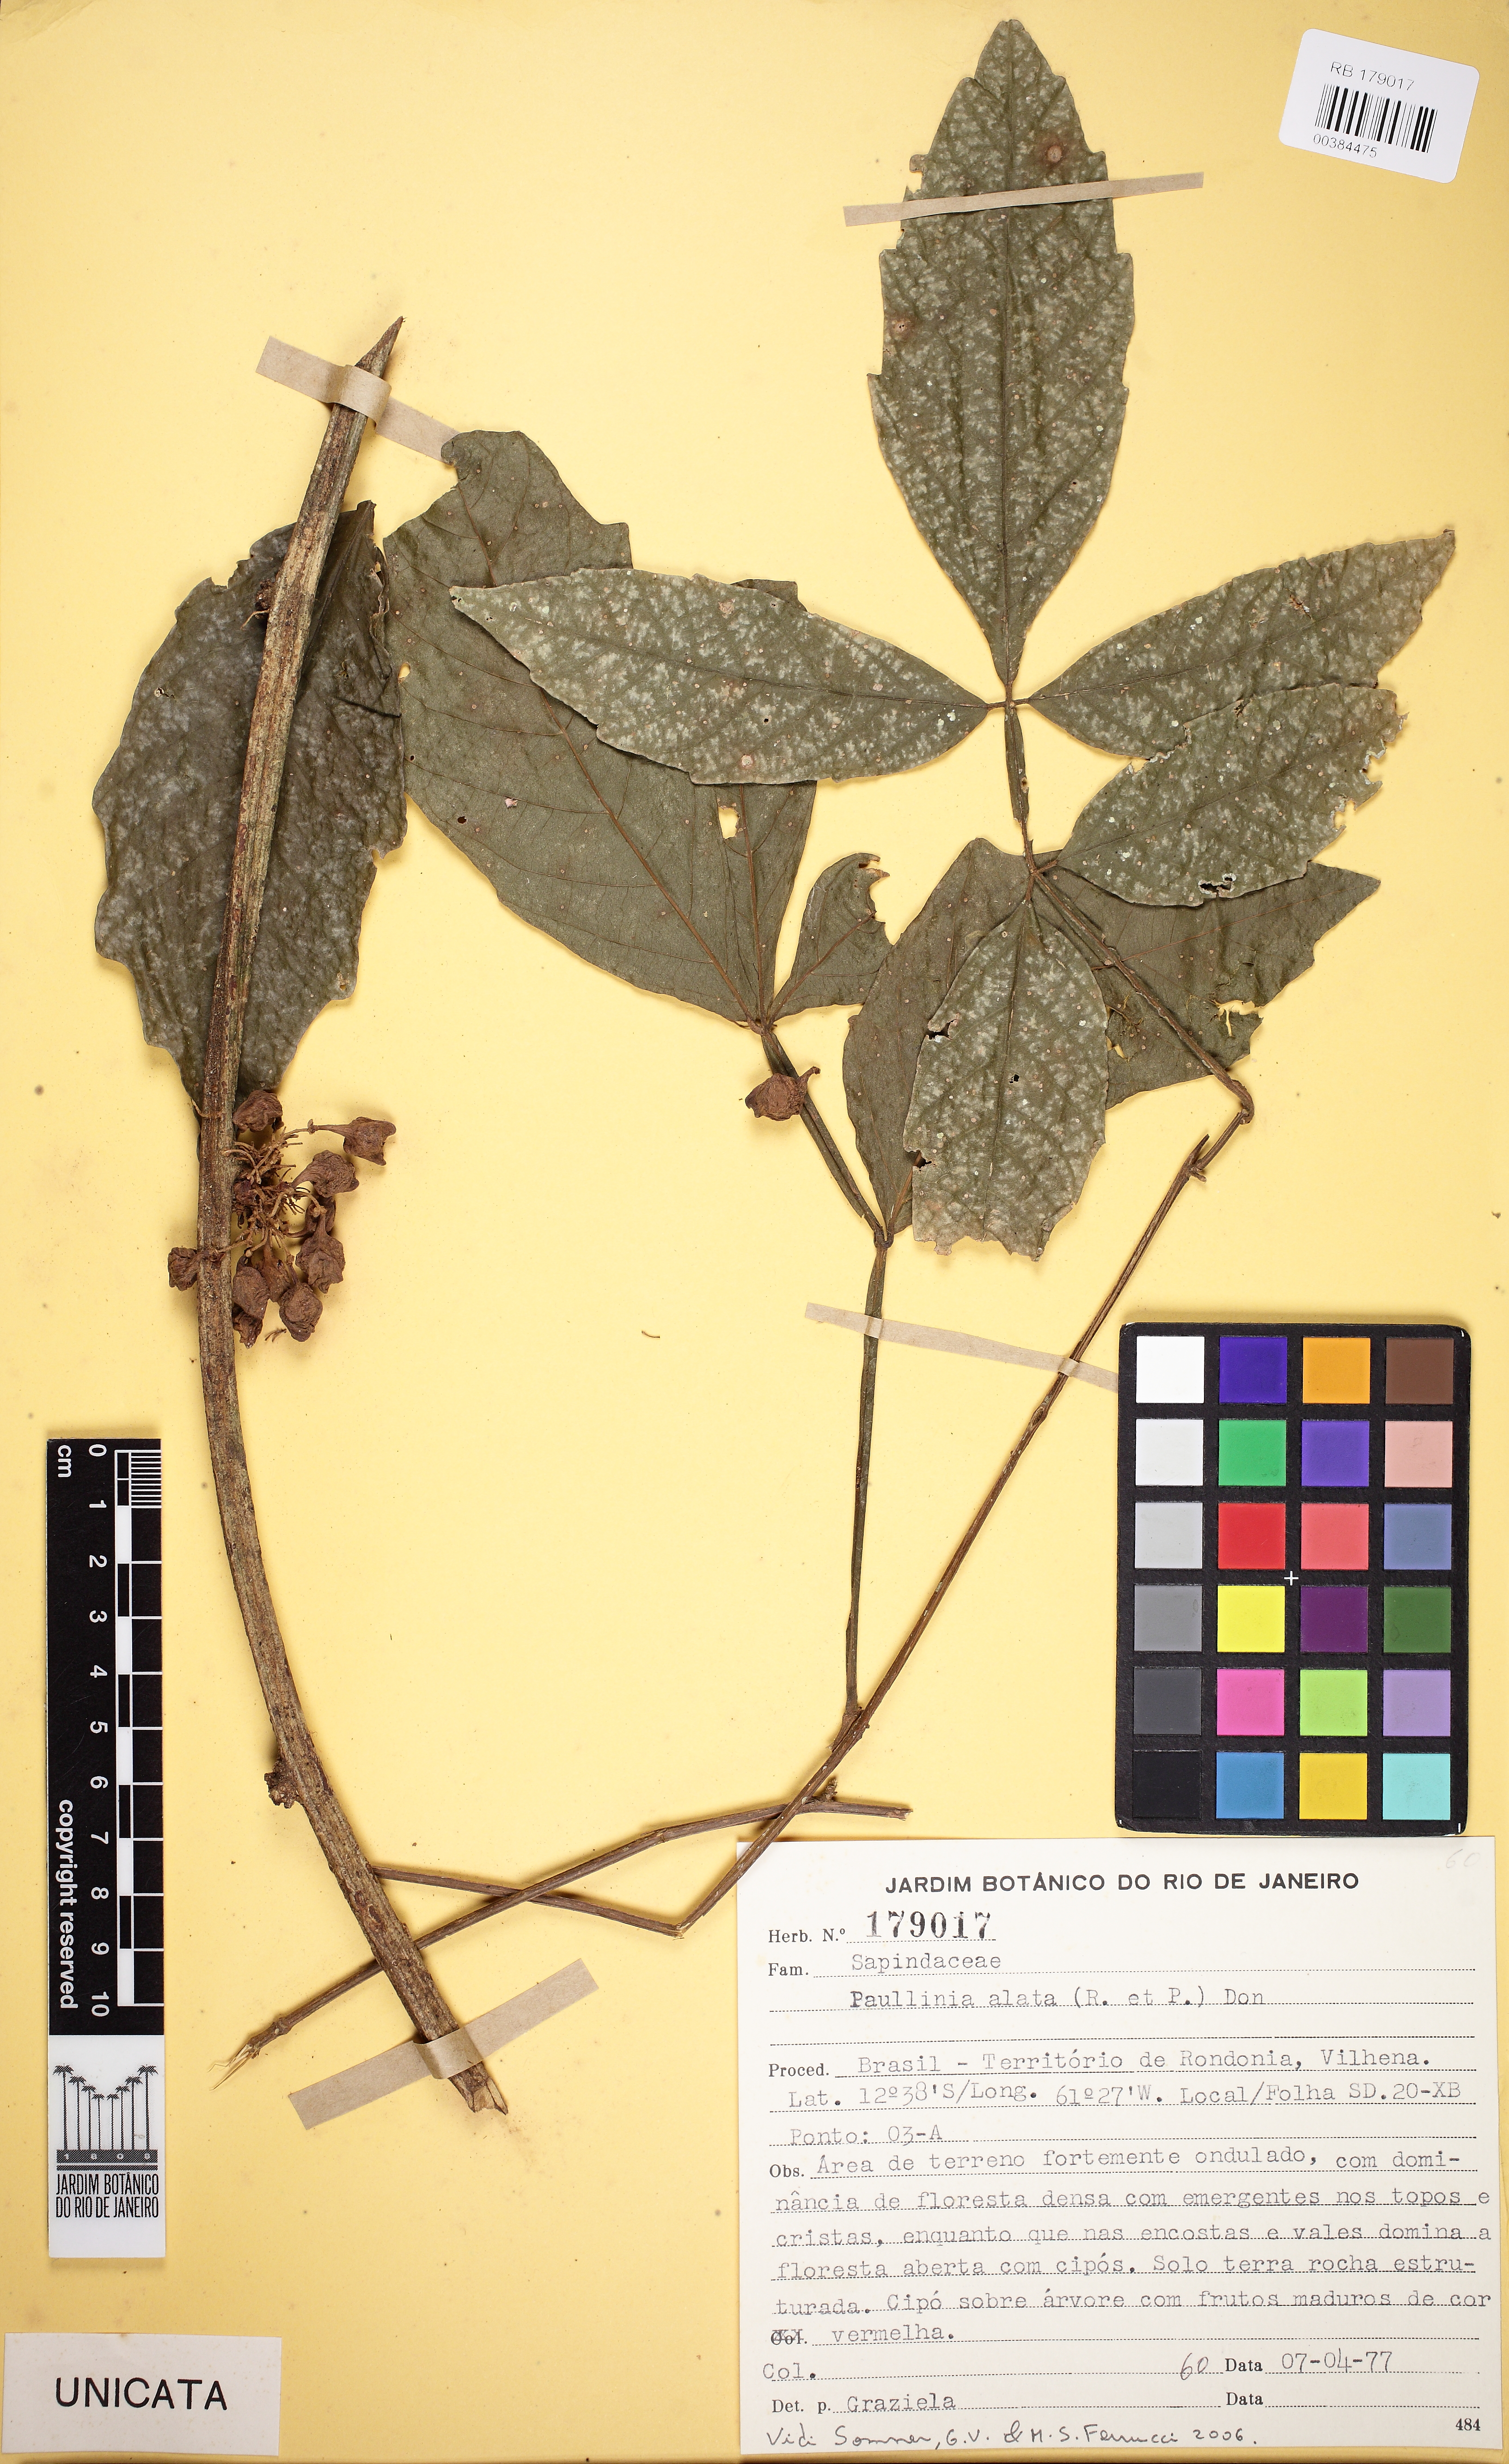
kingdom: Plantae
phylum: Tracheophyta
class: Magnoliopsida
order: Sapindales
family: Sapindaceae
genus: Paullinia
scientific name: Paullinia alata
